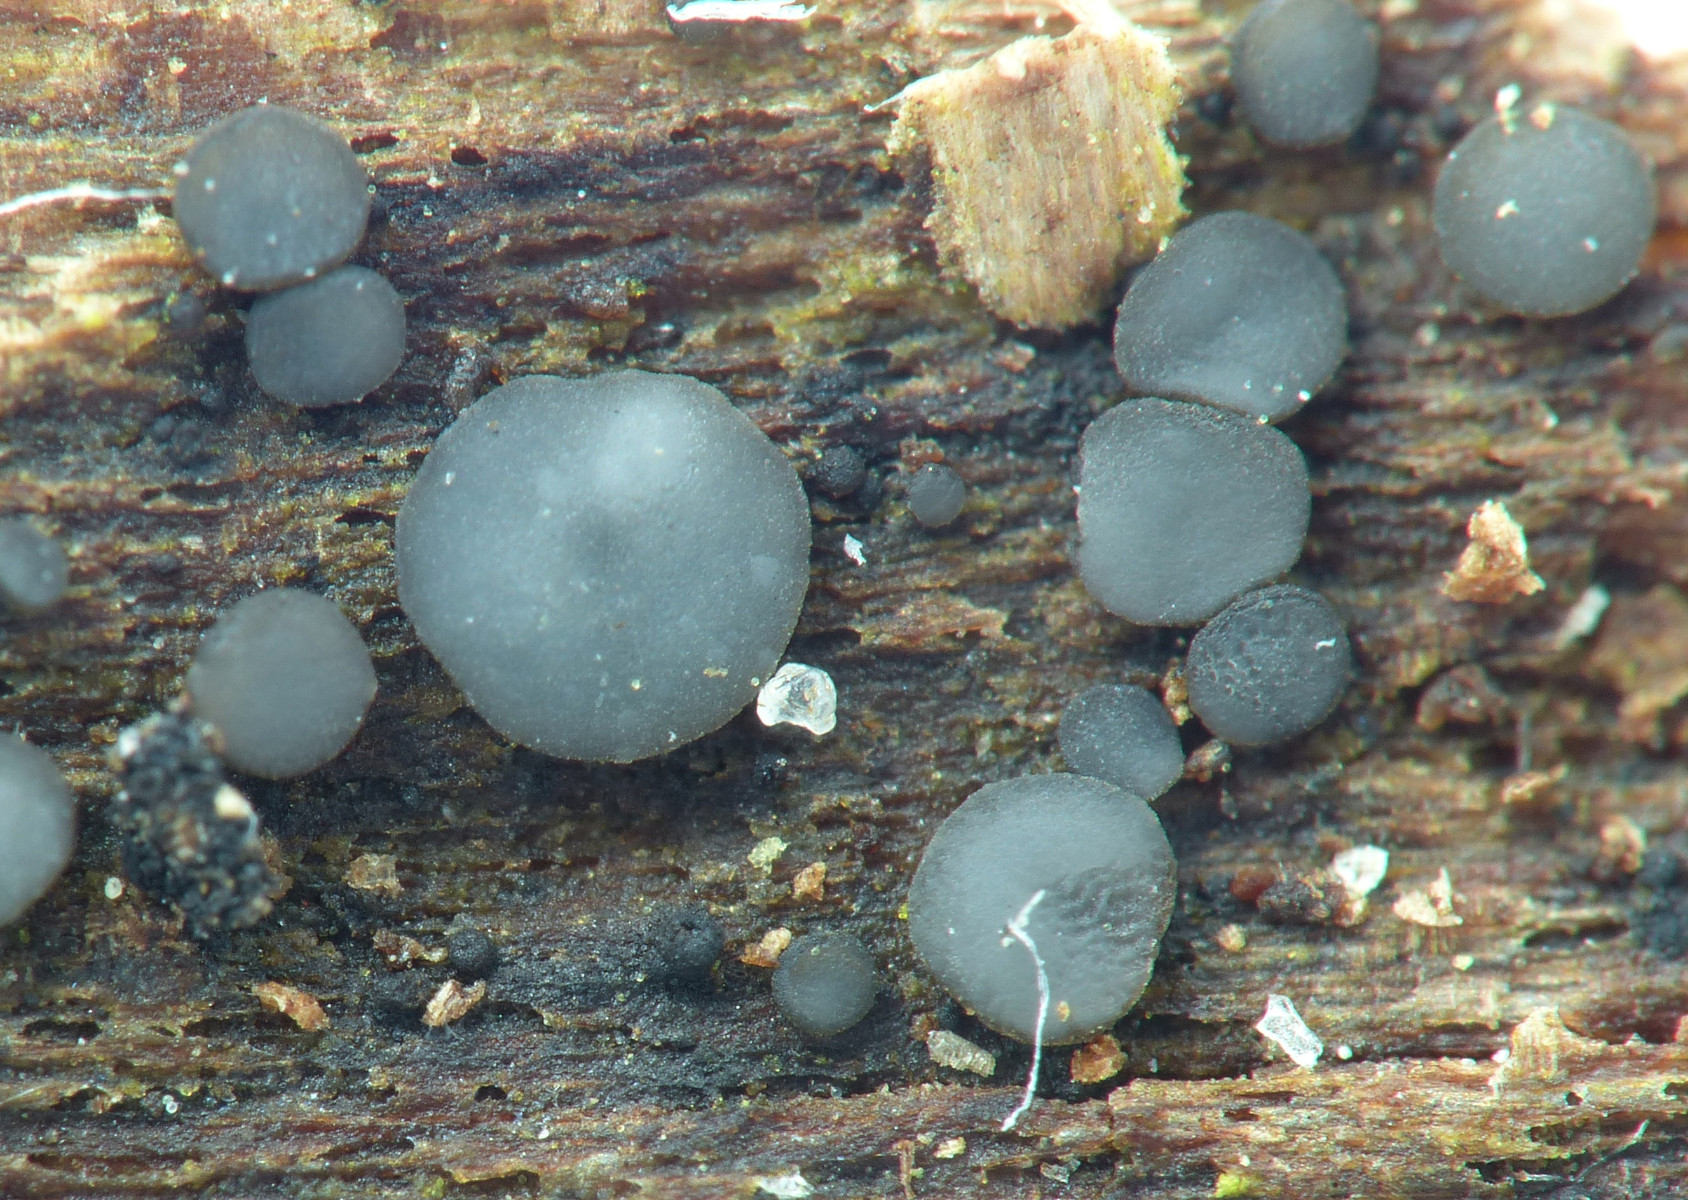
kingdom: Fungi
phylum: Ascomycota
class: Leotiomycetes
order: Helotiales
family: Mollisiaceae
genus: Mollisia
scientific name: Mollisia
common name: gråskive
